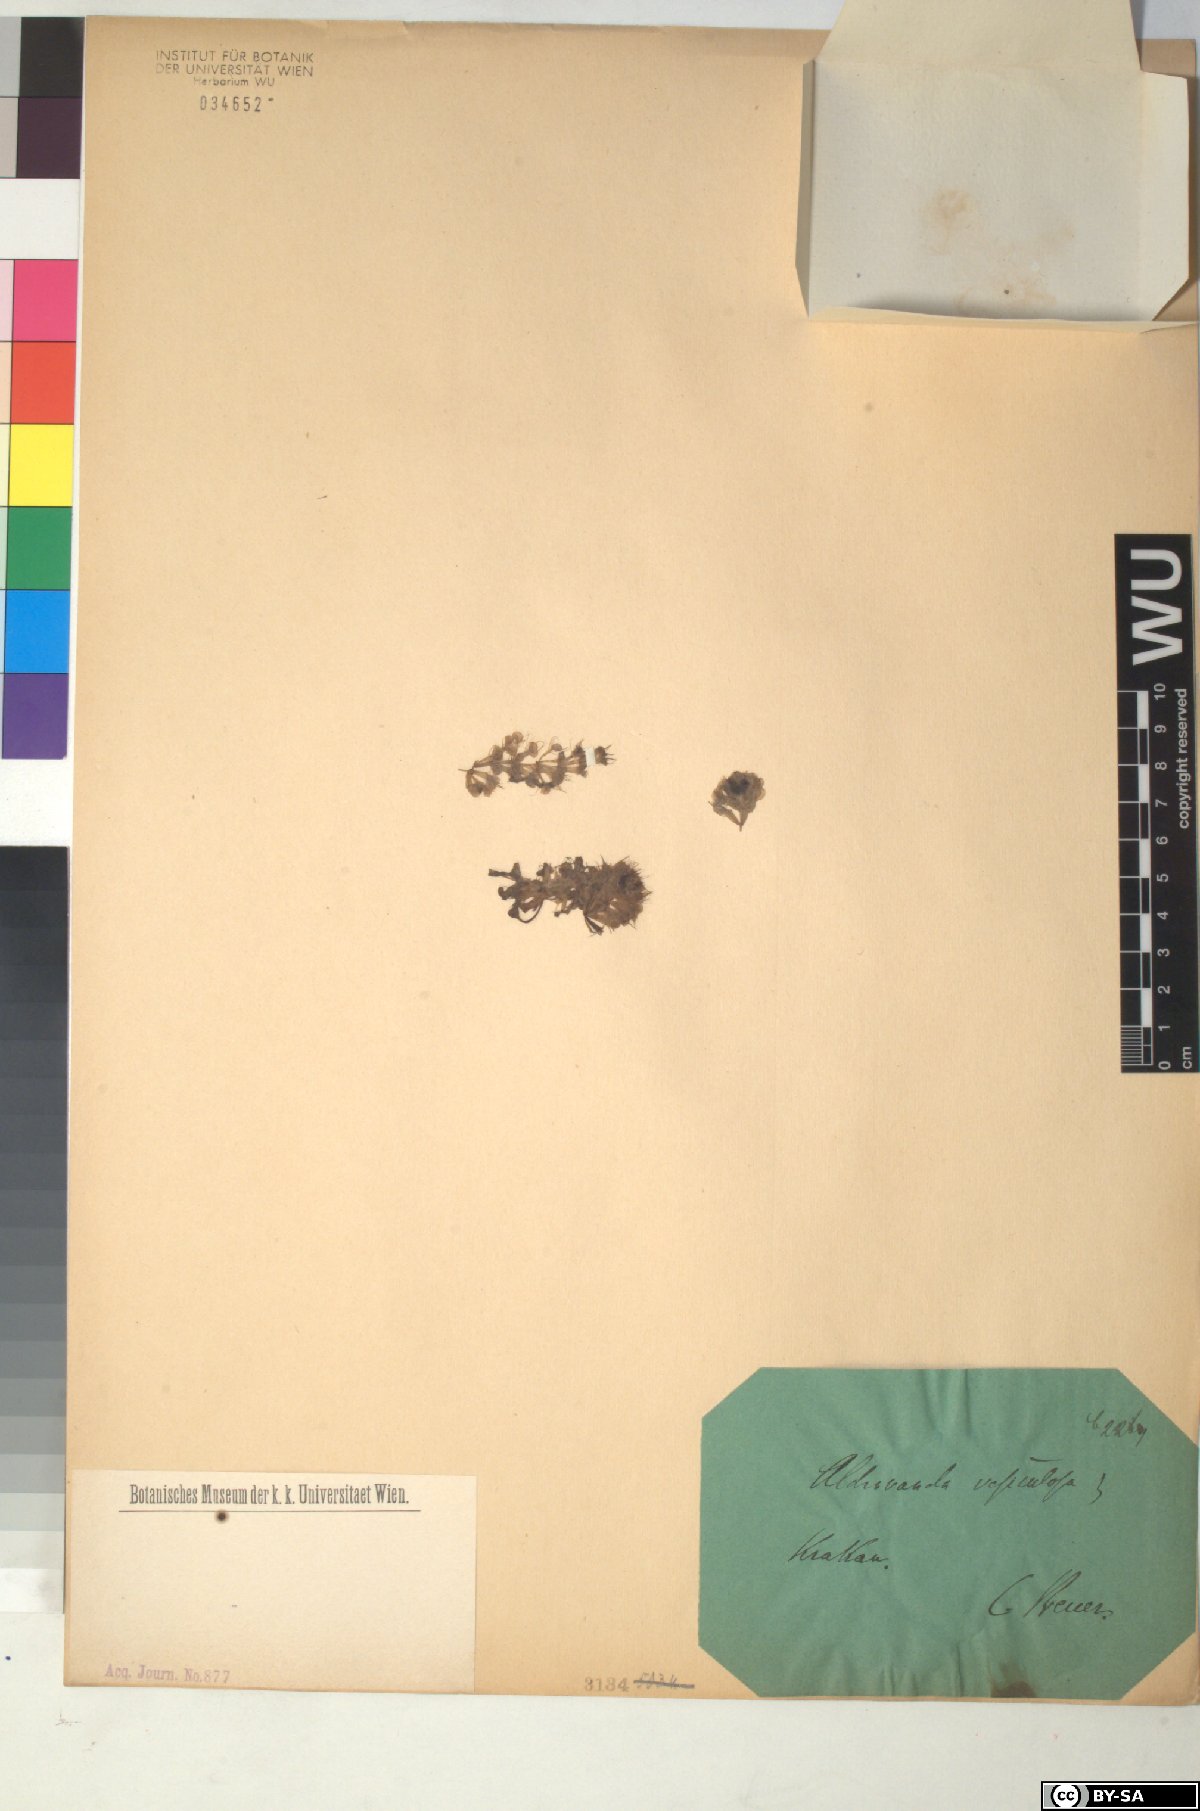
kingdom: Plantae
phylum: Tracheophyta
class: Magnoliopsida
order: Caryophyllales
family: Droseraceae
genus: Aldrovanda
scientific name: Aldrovanda vesiculosa
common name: Waterwheel plant
